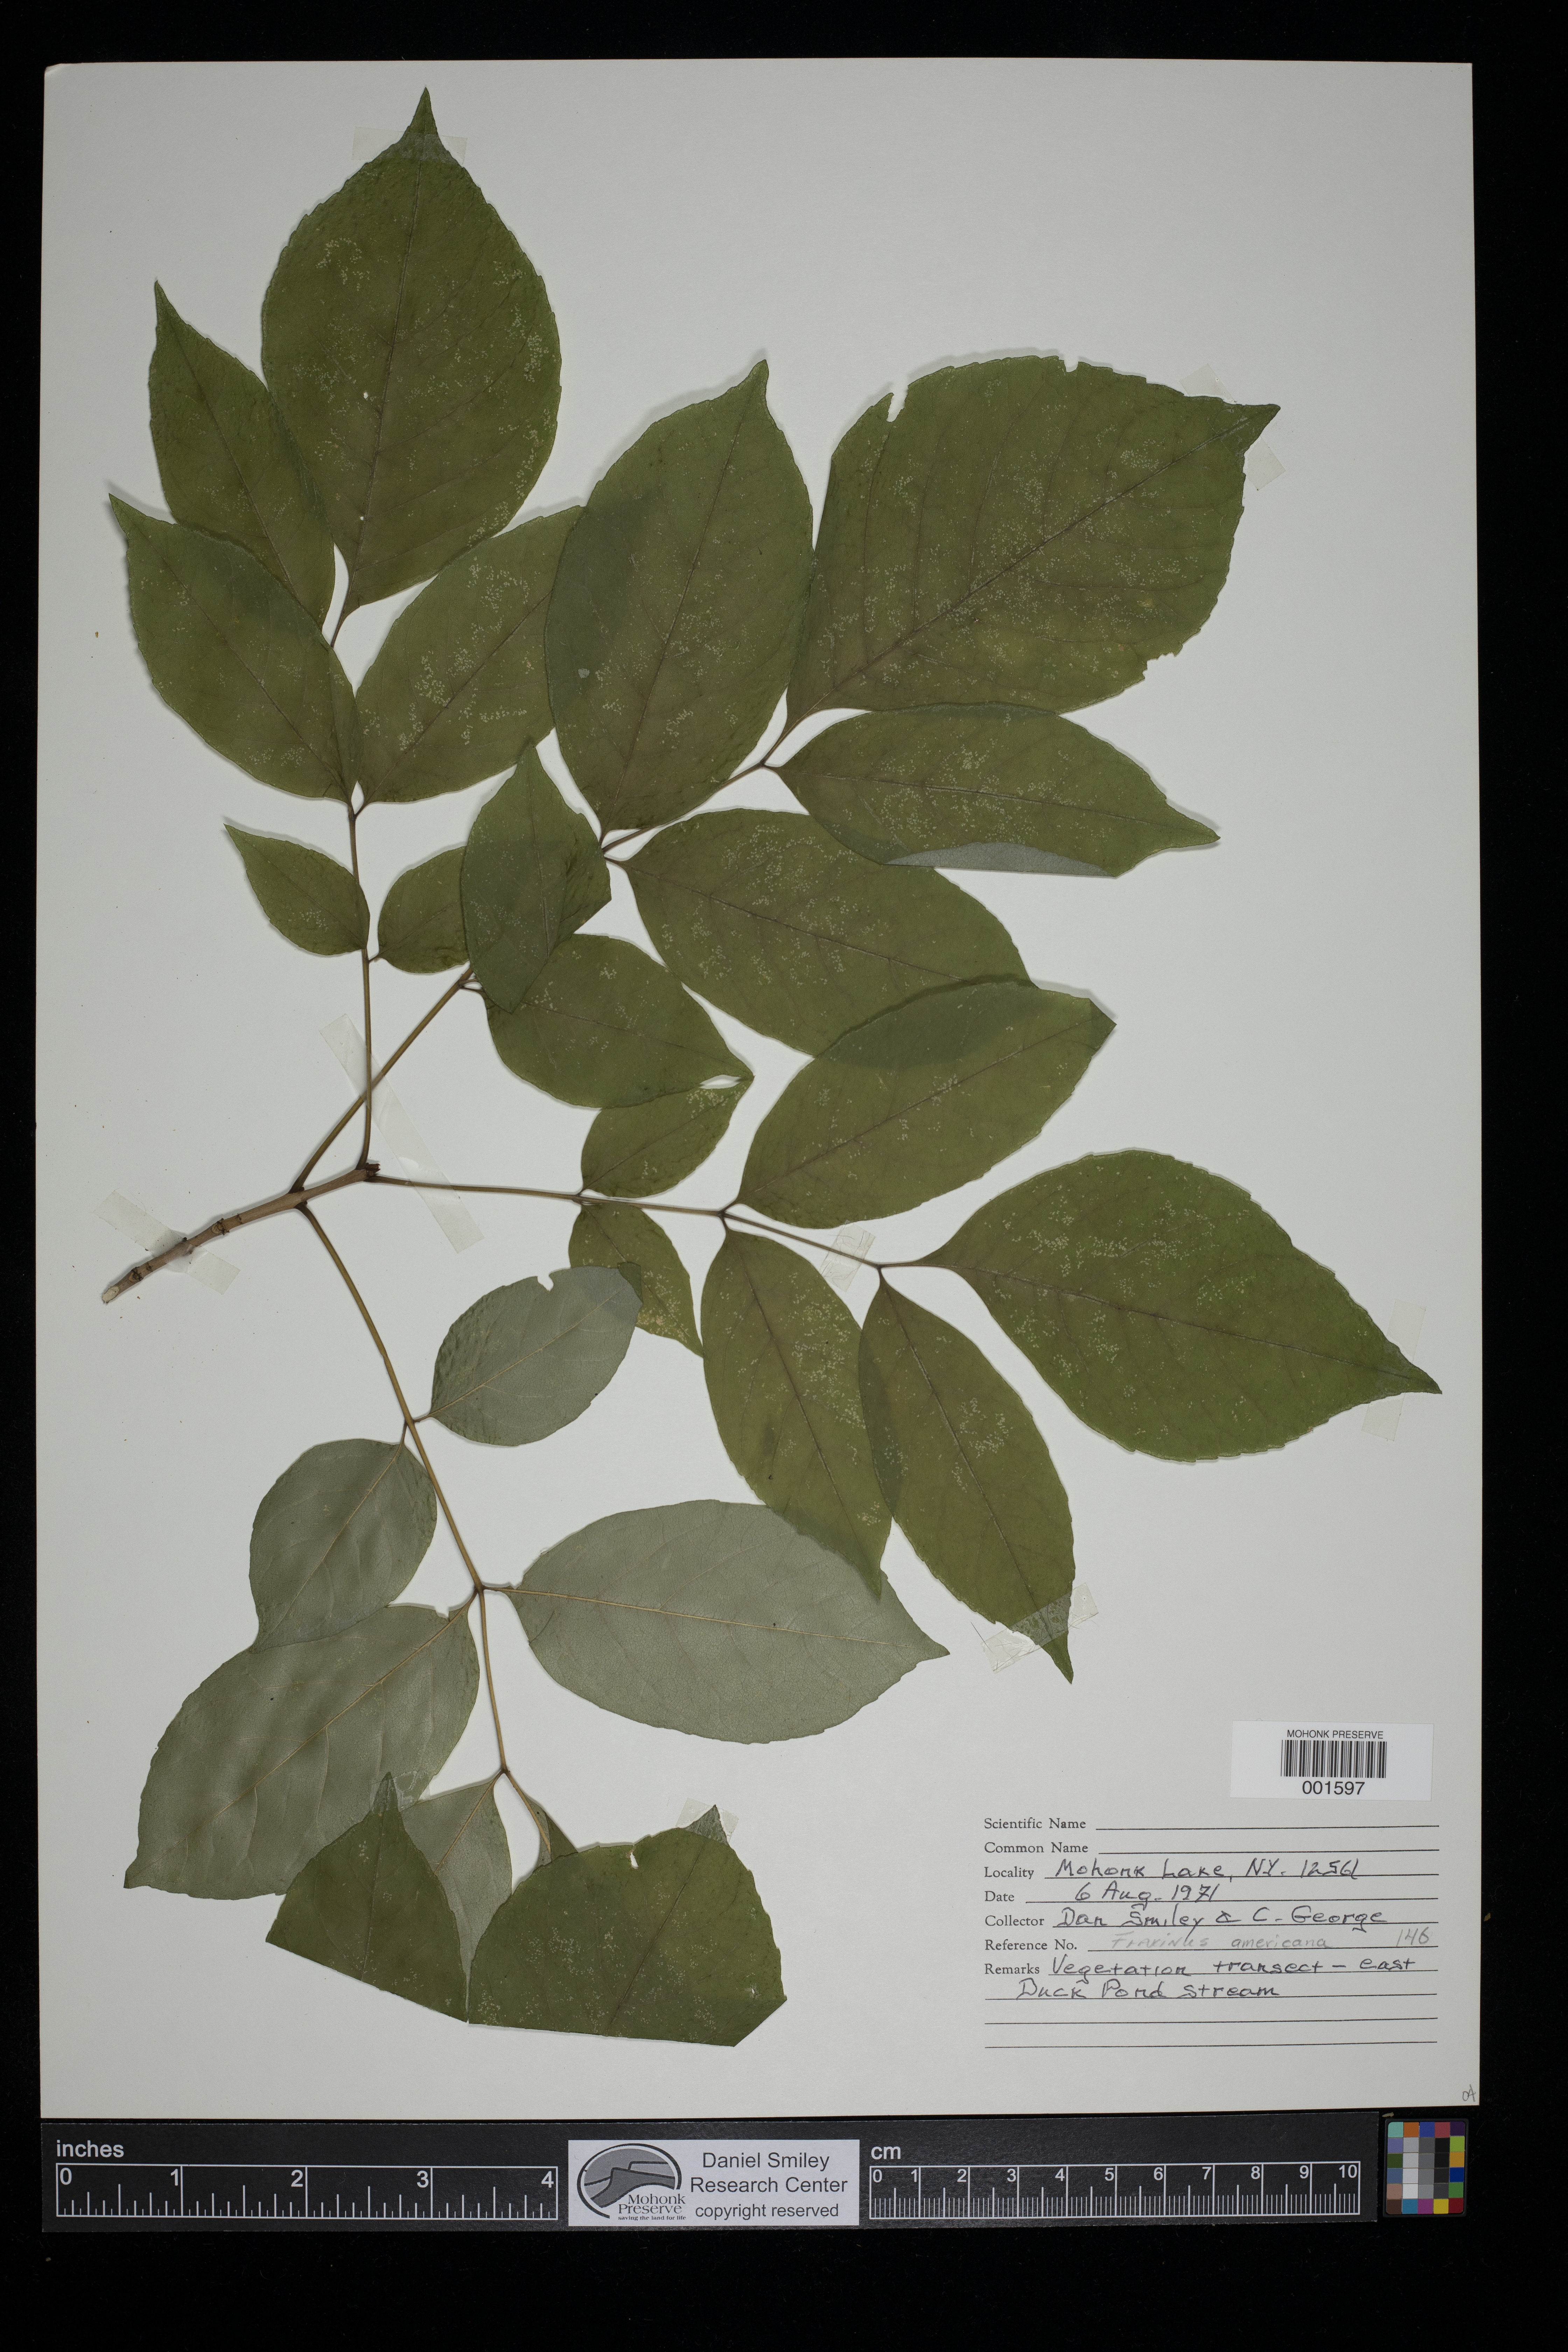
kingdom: Plantae
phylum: Tracheophyta
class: Magnoliopsida
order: Lamiales
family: Oleaceae
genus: Fraxinus
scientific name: Fraxinus americana
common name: White ash
